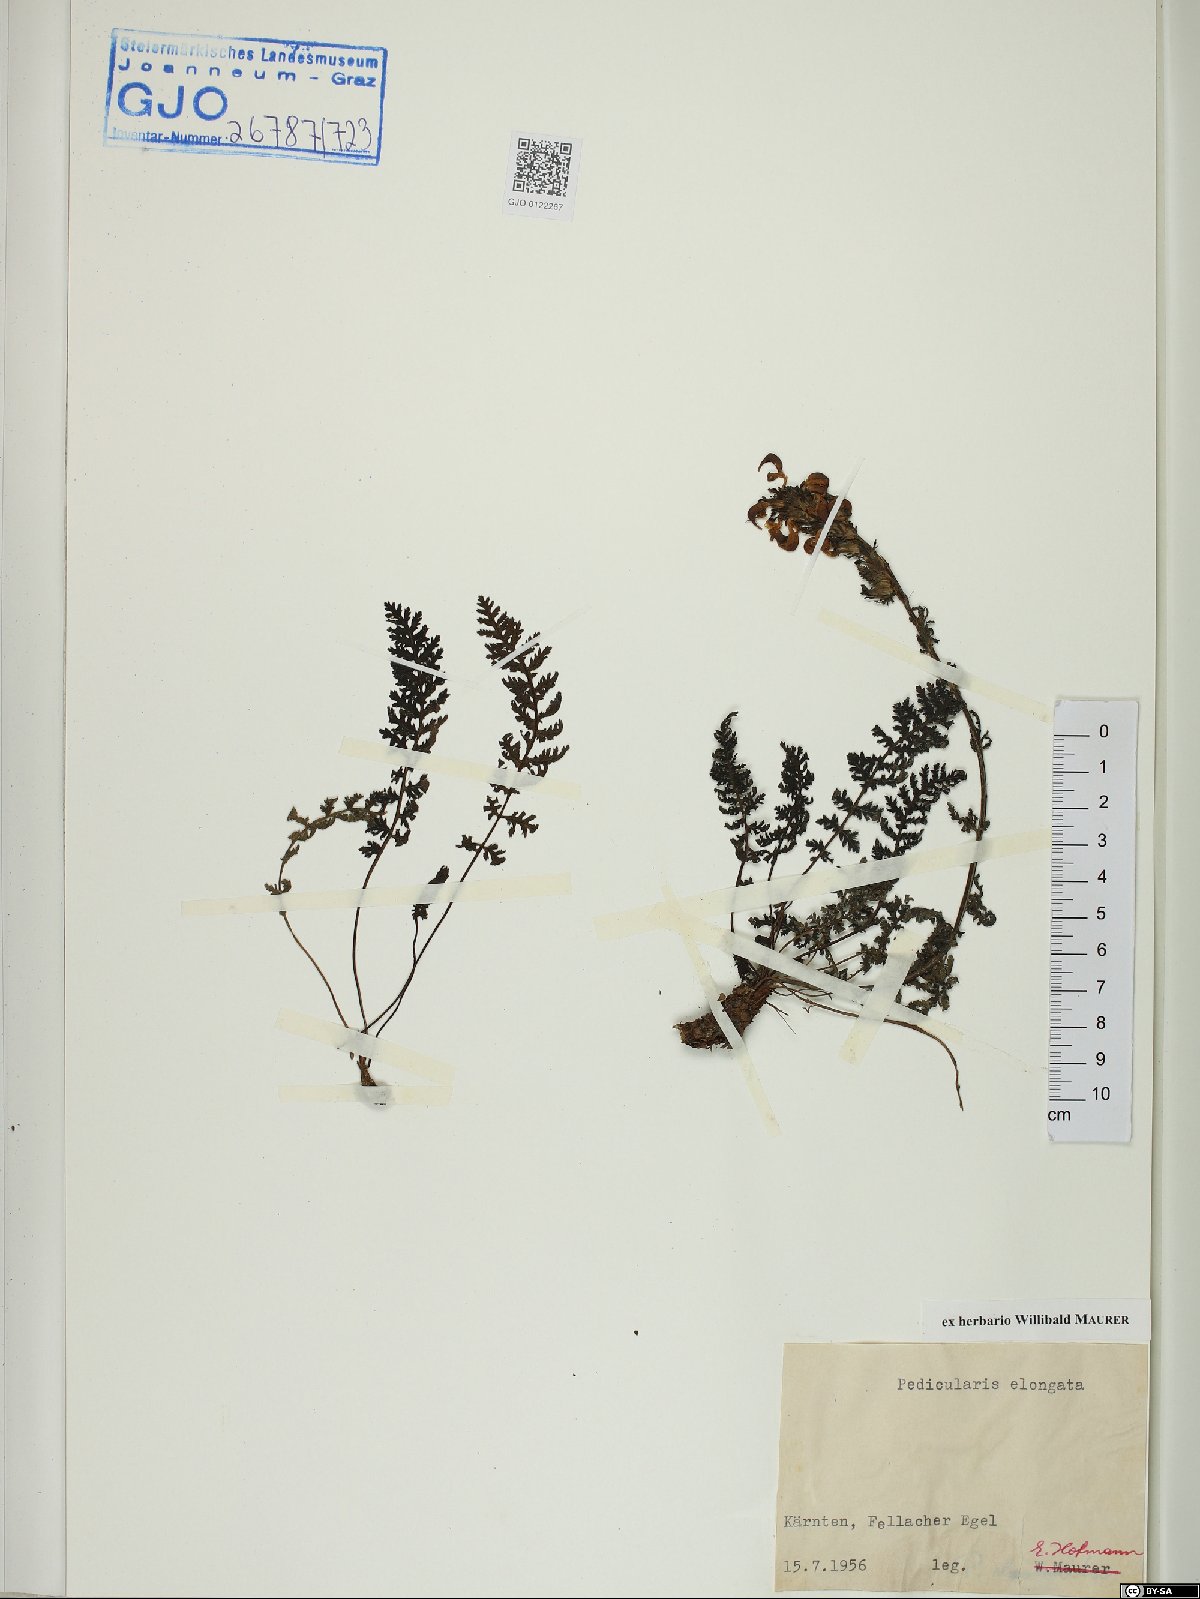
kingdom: Plantae
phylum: Tracheophyta
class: Magnoliopsida
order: Lamiales
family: Orobanchaceae
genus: Pedicularis
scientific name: Pedicularis elongata
